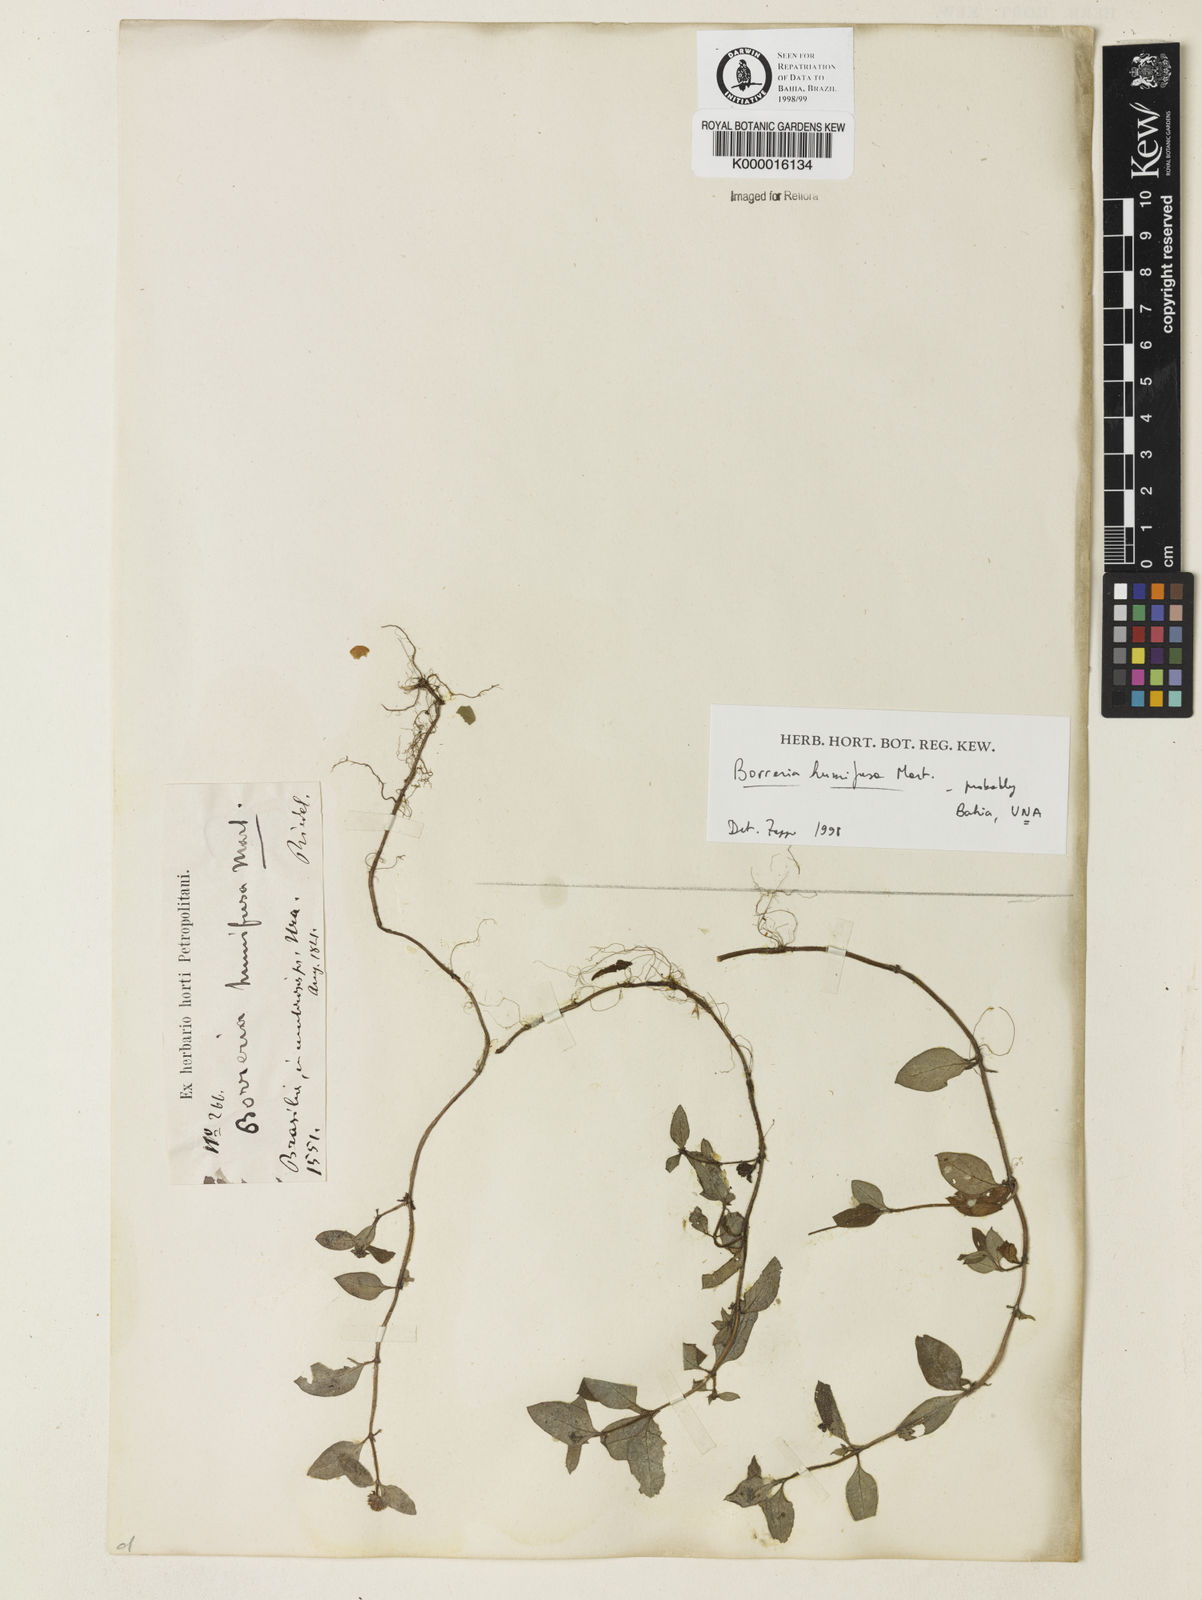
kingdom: Plantae
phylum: Tracheophyta
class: Magnoliopsida
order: Gentianales
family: Rubiaceae
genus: Spermacoce
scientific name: Spermacoce scabiosoides
